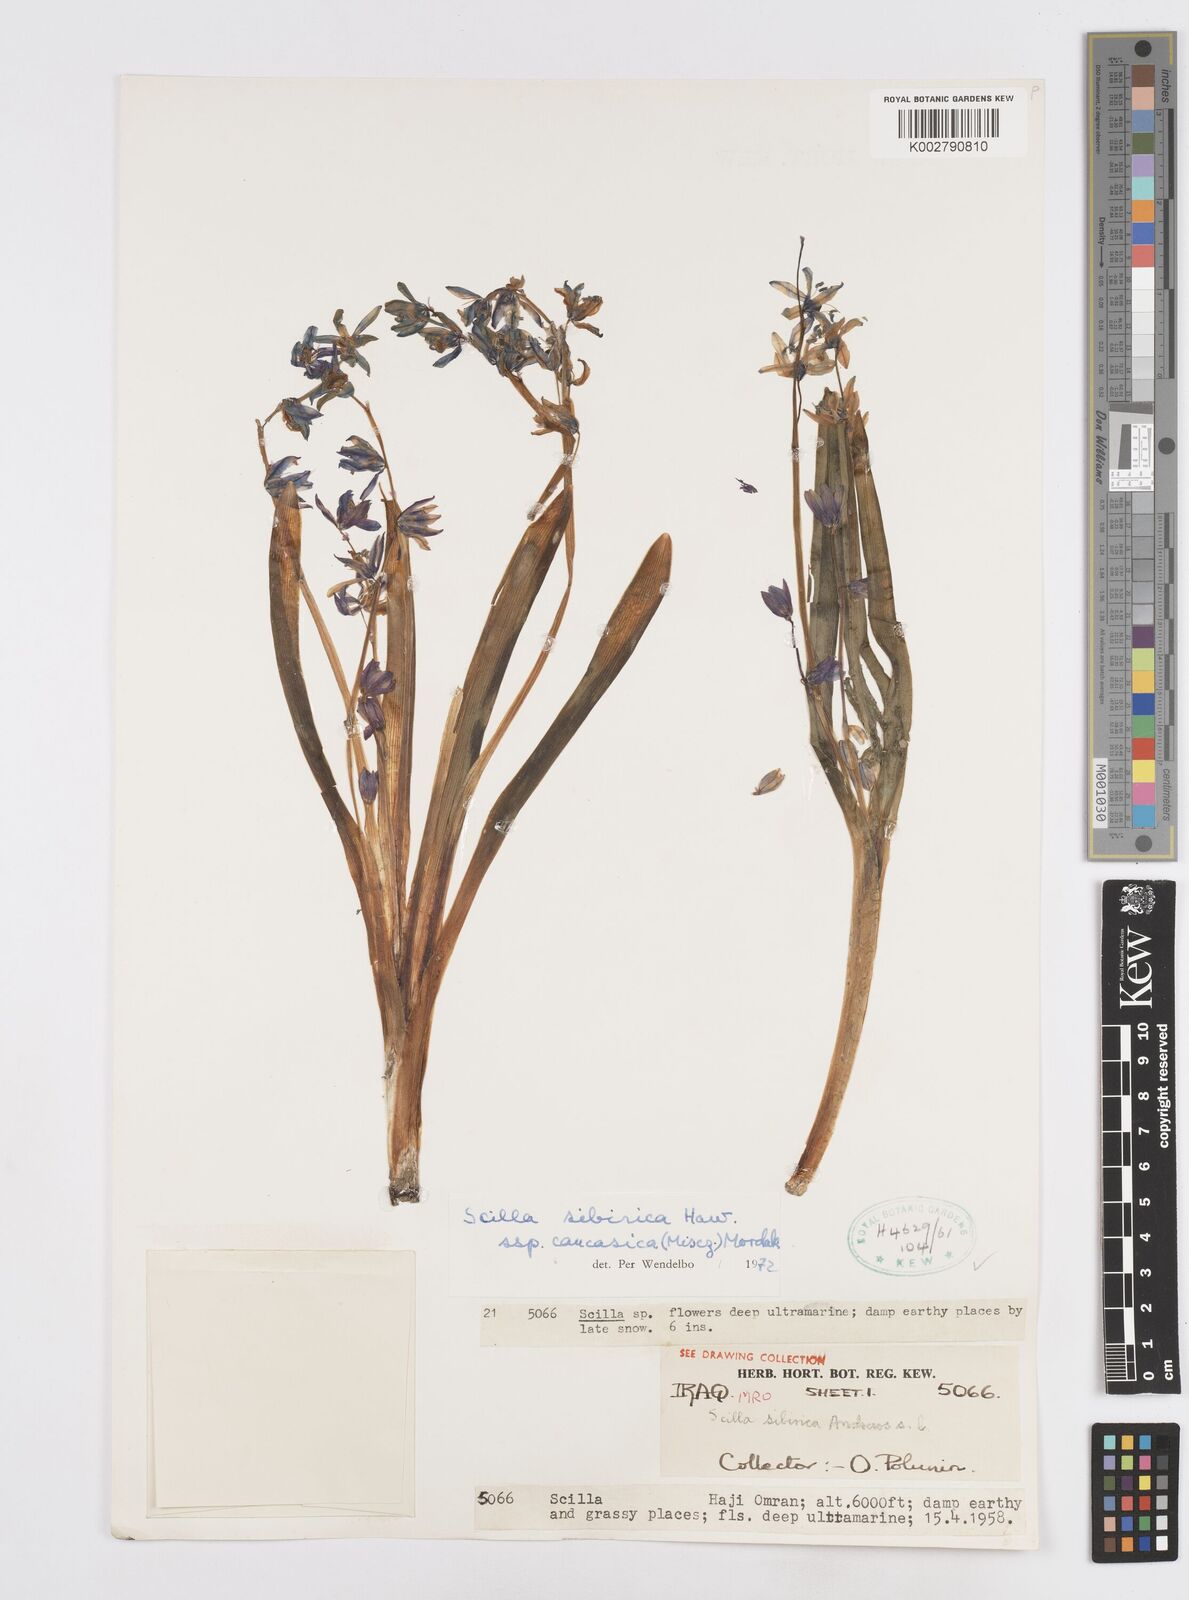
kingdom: Plantae
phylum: Tracheophyta
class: Liliopsida
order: Asparagales
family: Asparagaceae
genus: Scilla
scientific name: Scilla siberica
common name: Siberian squill
